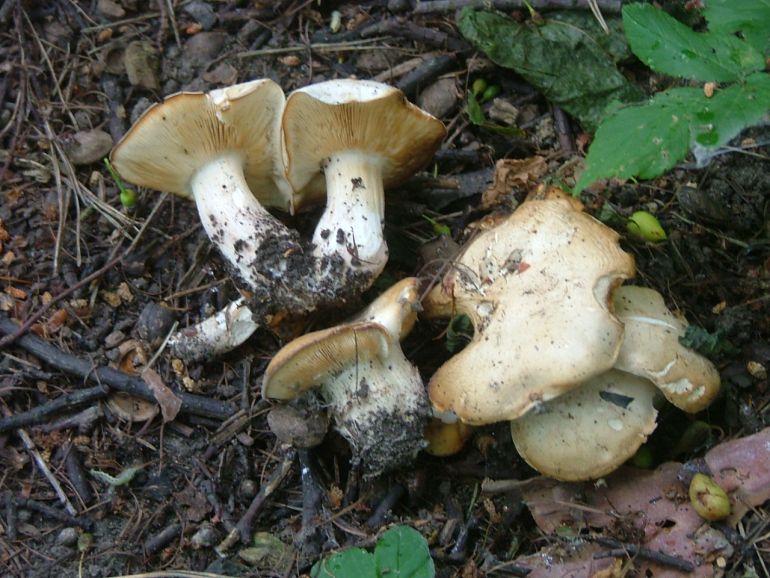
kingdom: Fungi
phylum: Basidiomycota
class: Agaricomycetes
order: Agaricales
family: Lyophyllaceae
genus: Calocybe
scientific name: Calocybe gambosa
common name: vårmusseron
